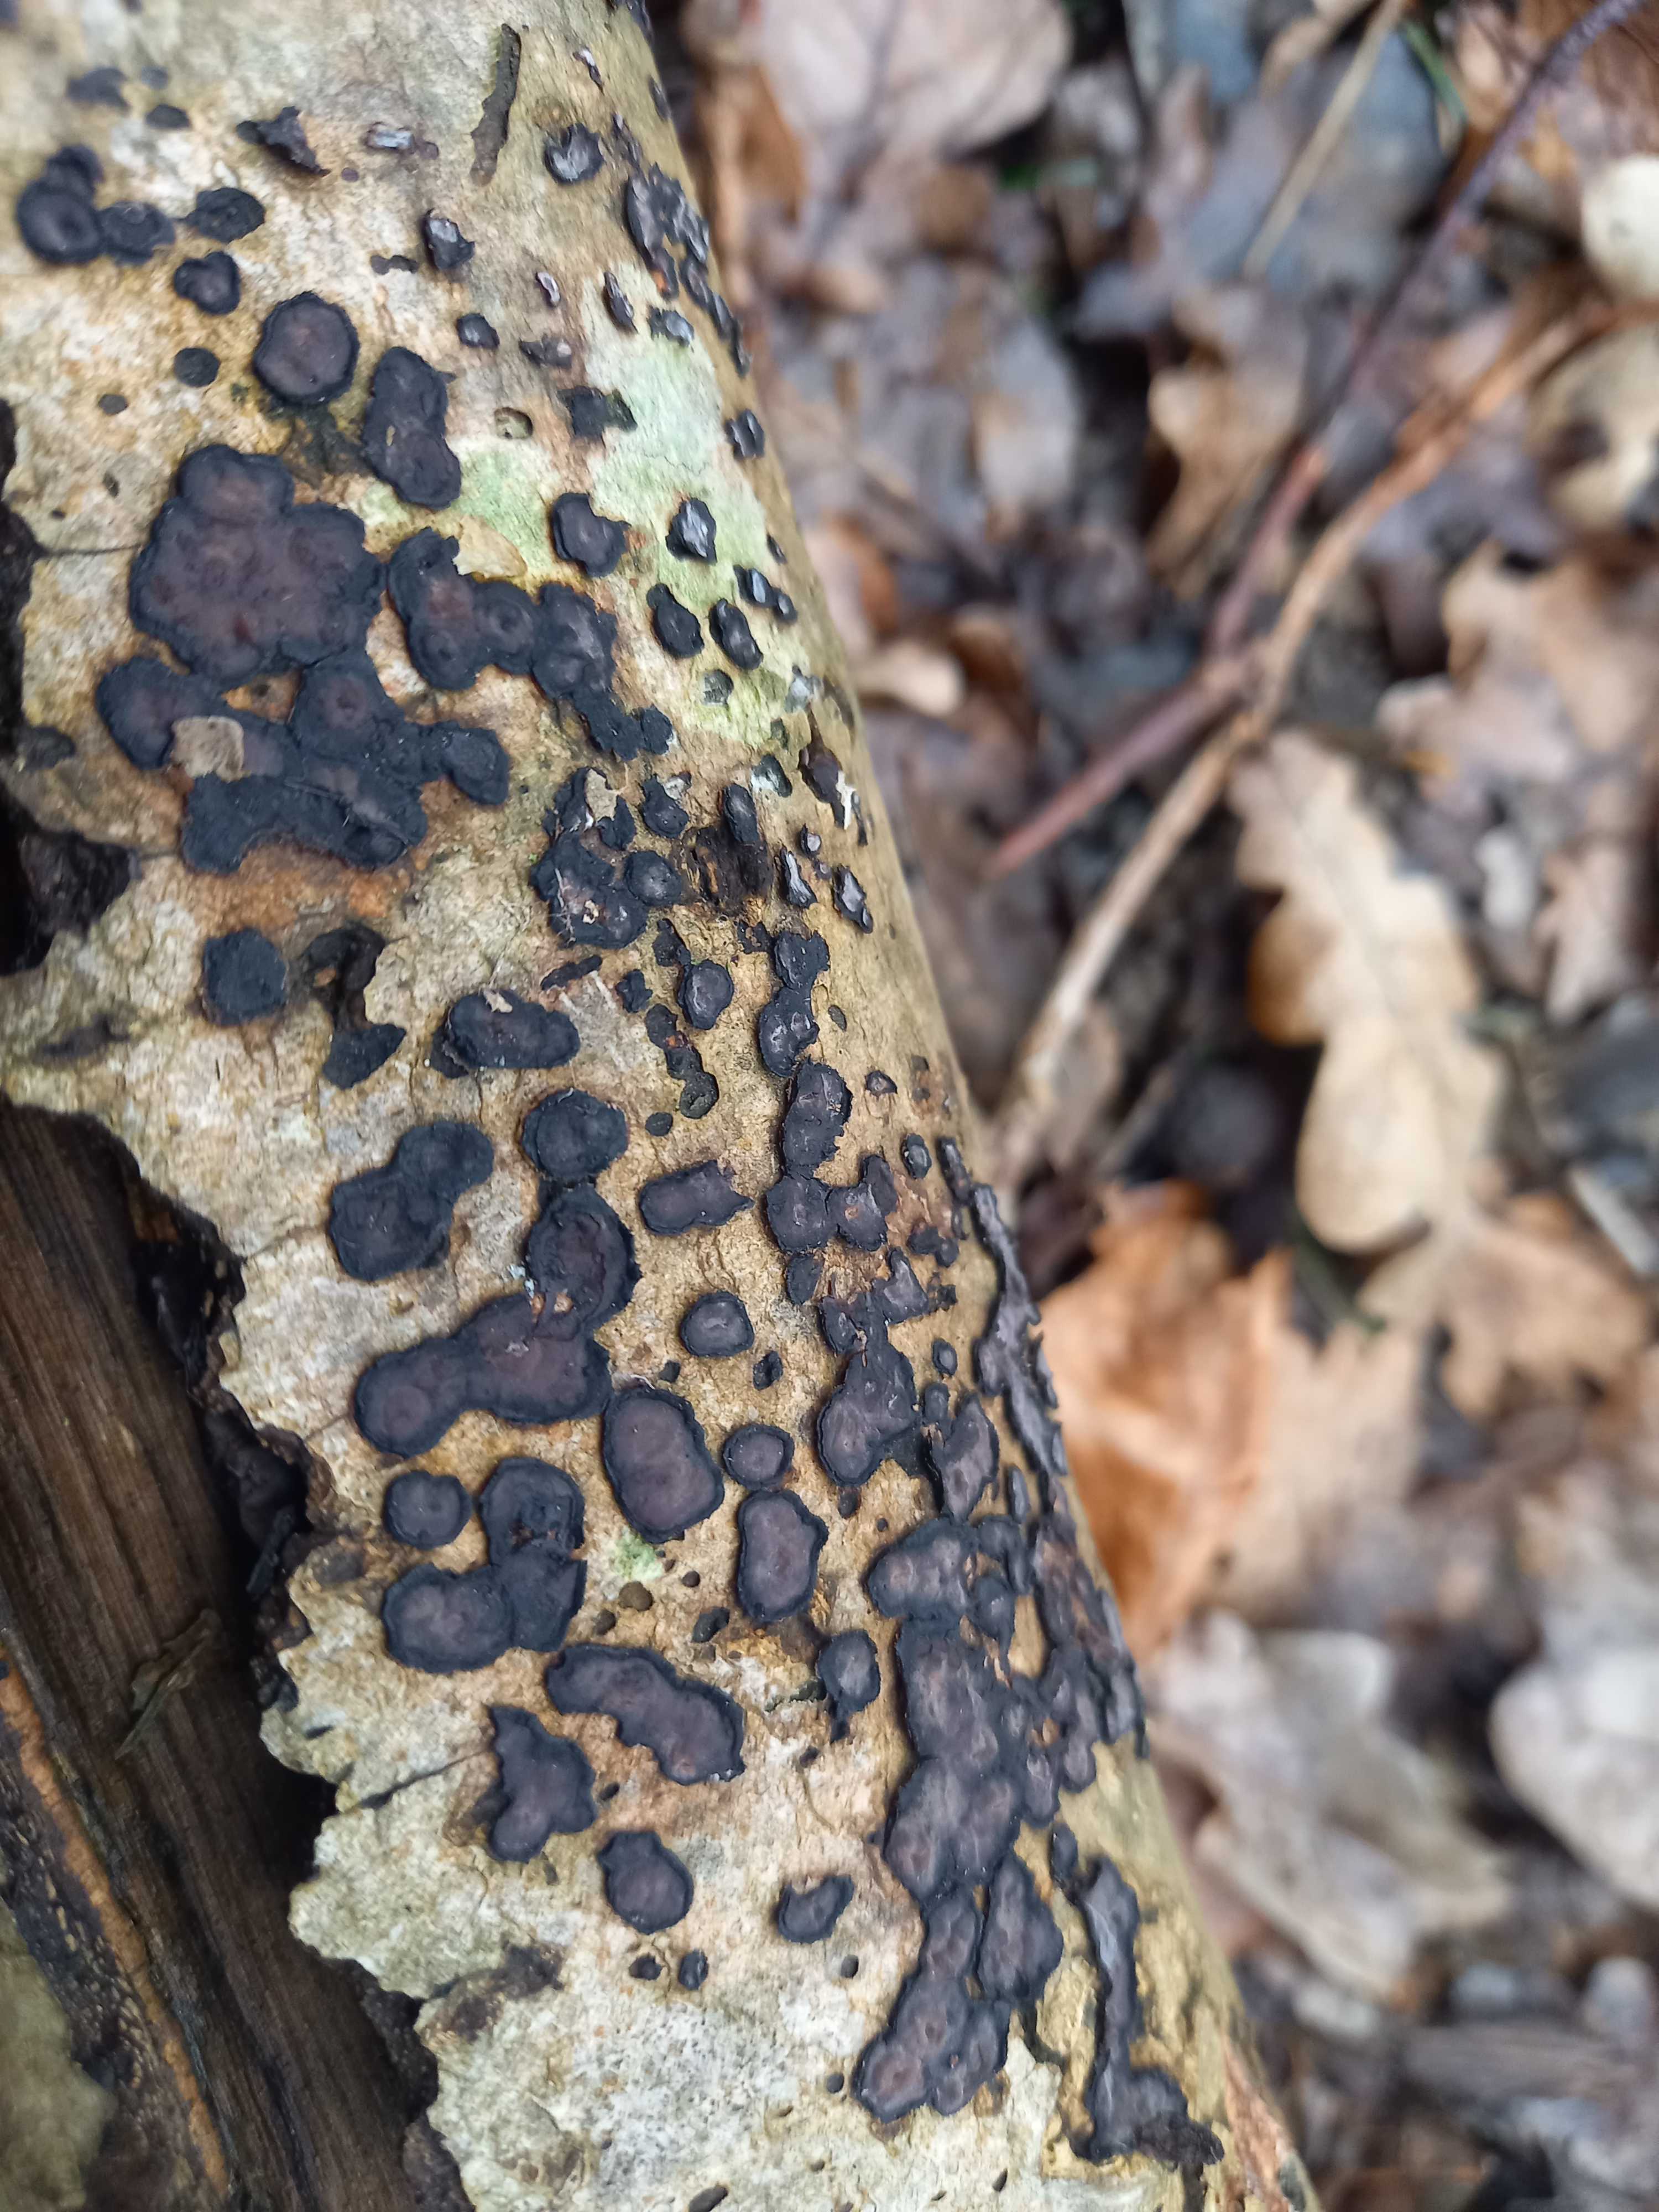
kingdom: Fungi
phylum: Basidiomycota
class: Agaricomycetes
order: Russulales
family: Peniophoraceae
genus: Peniophora
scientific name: Peniophora limitata
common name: mørkrandet voksskind
